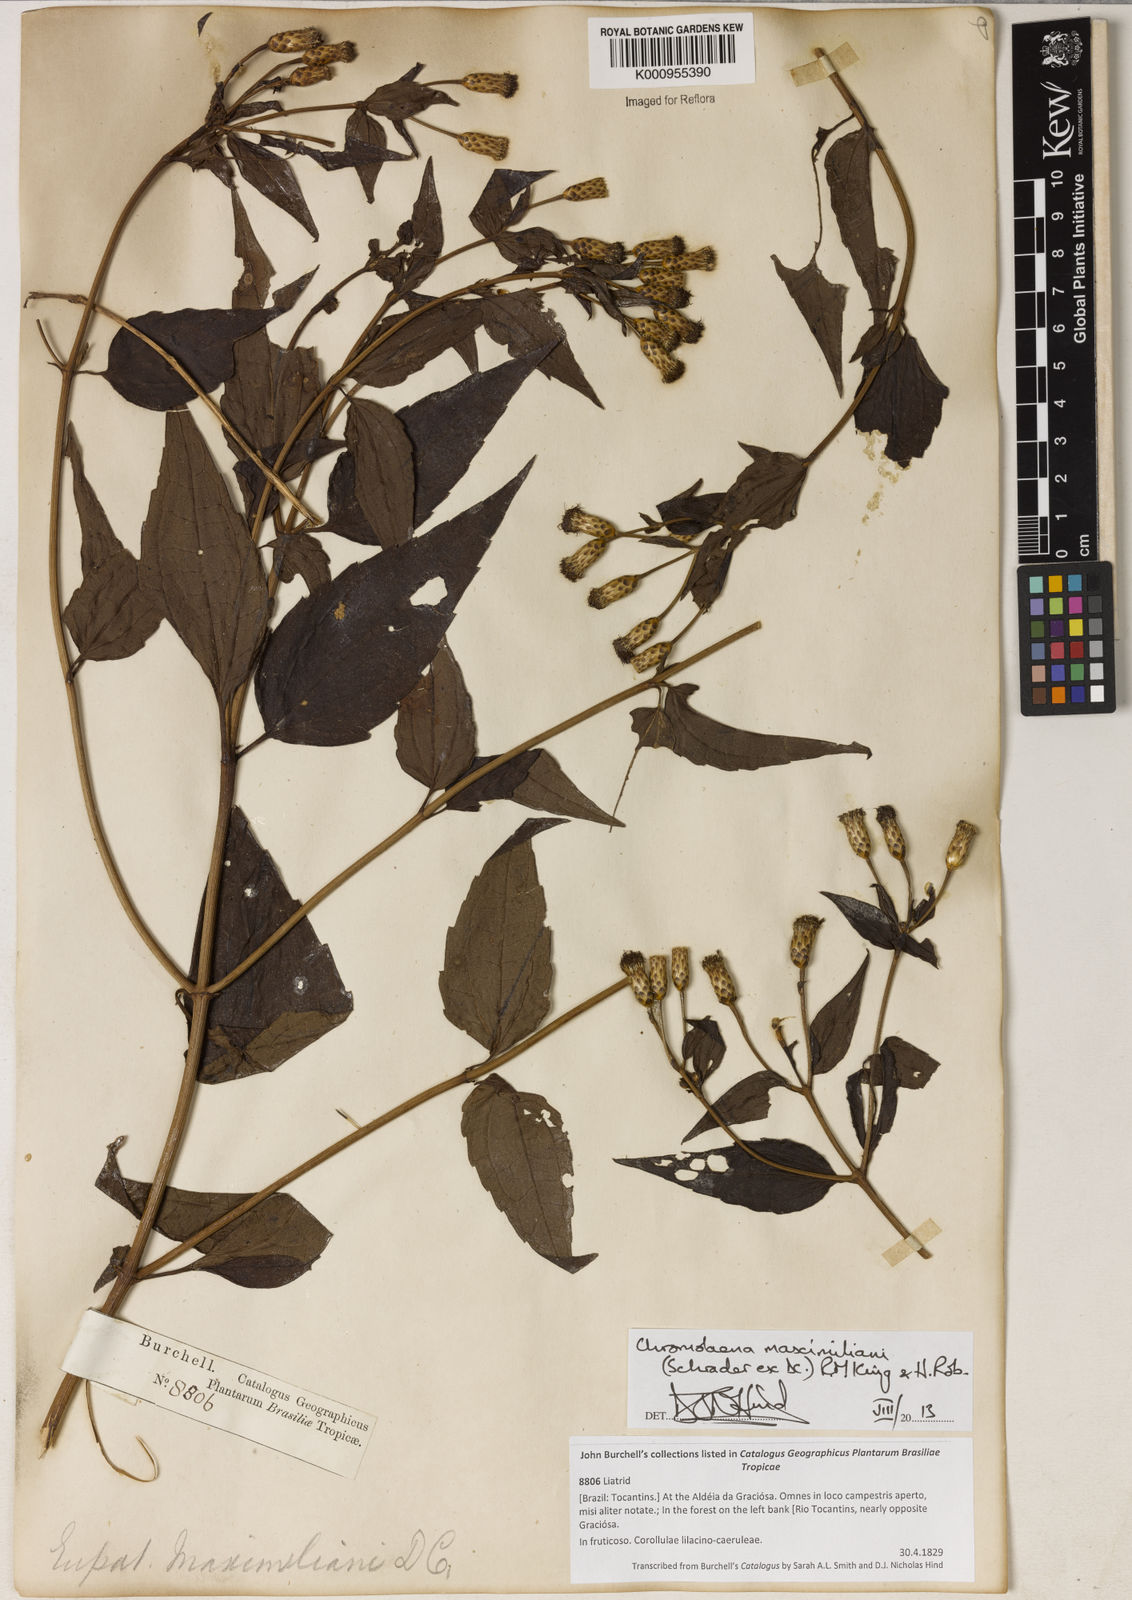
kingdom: Plantae
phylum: Tracheophyta
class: Magnoliopsida
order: Asterales
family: Asteraceae
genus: Chromolaena
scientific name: Chromolaena maximiliani
